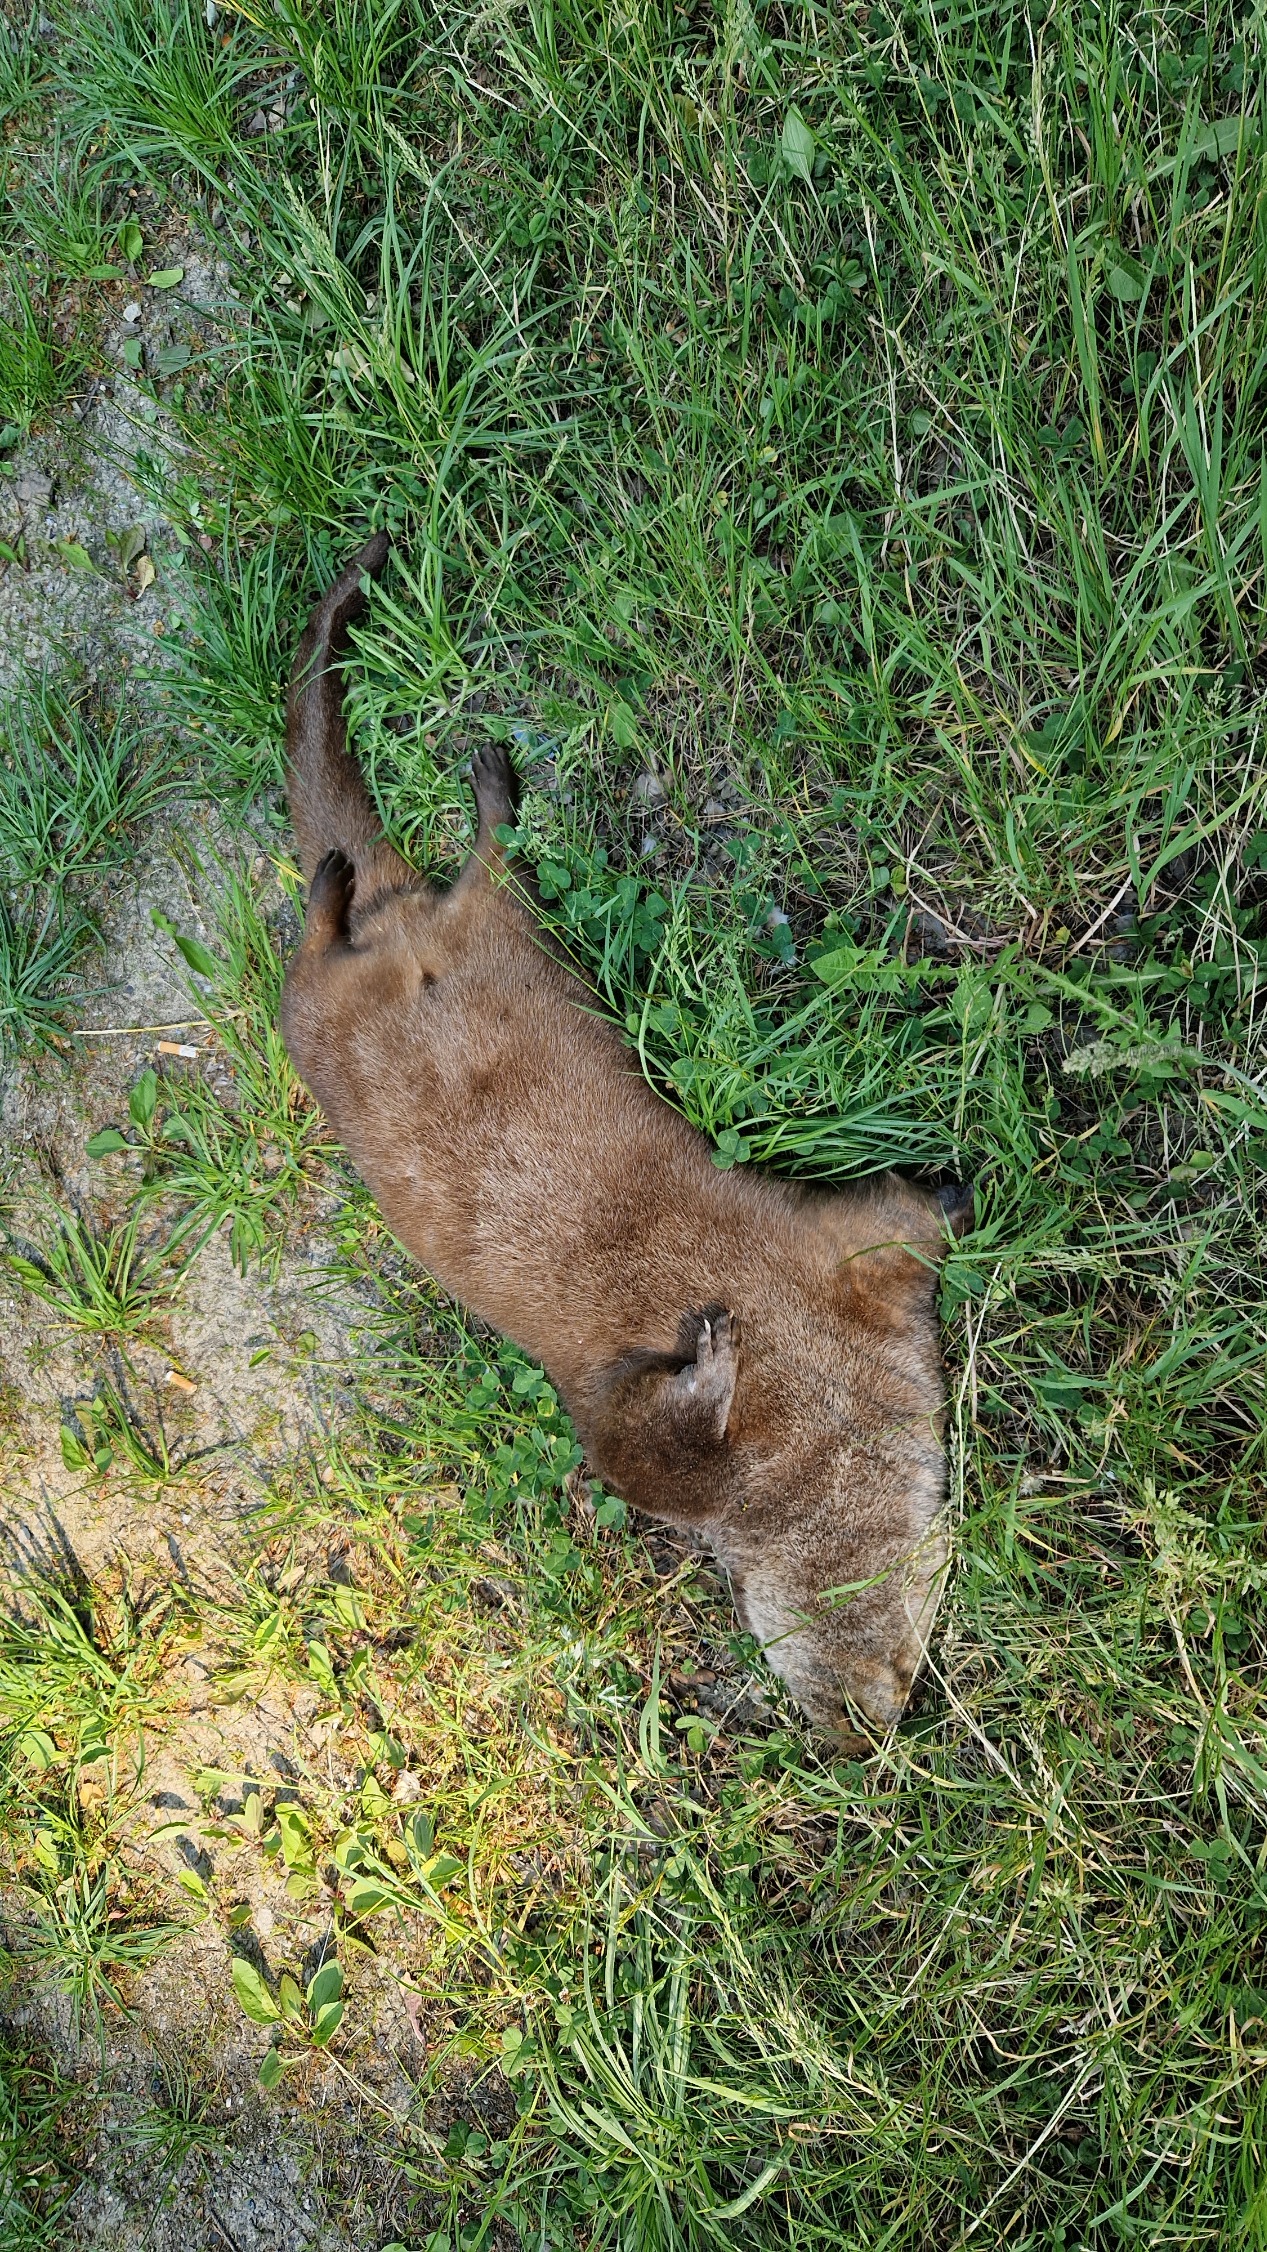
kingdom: Animalia
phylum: Chordata
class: Mammalia
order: Carnivora
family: Mustelidae
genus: Lutra
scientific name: Lutra lutra
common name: Odder
